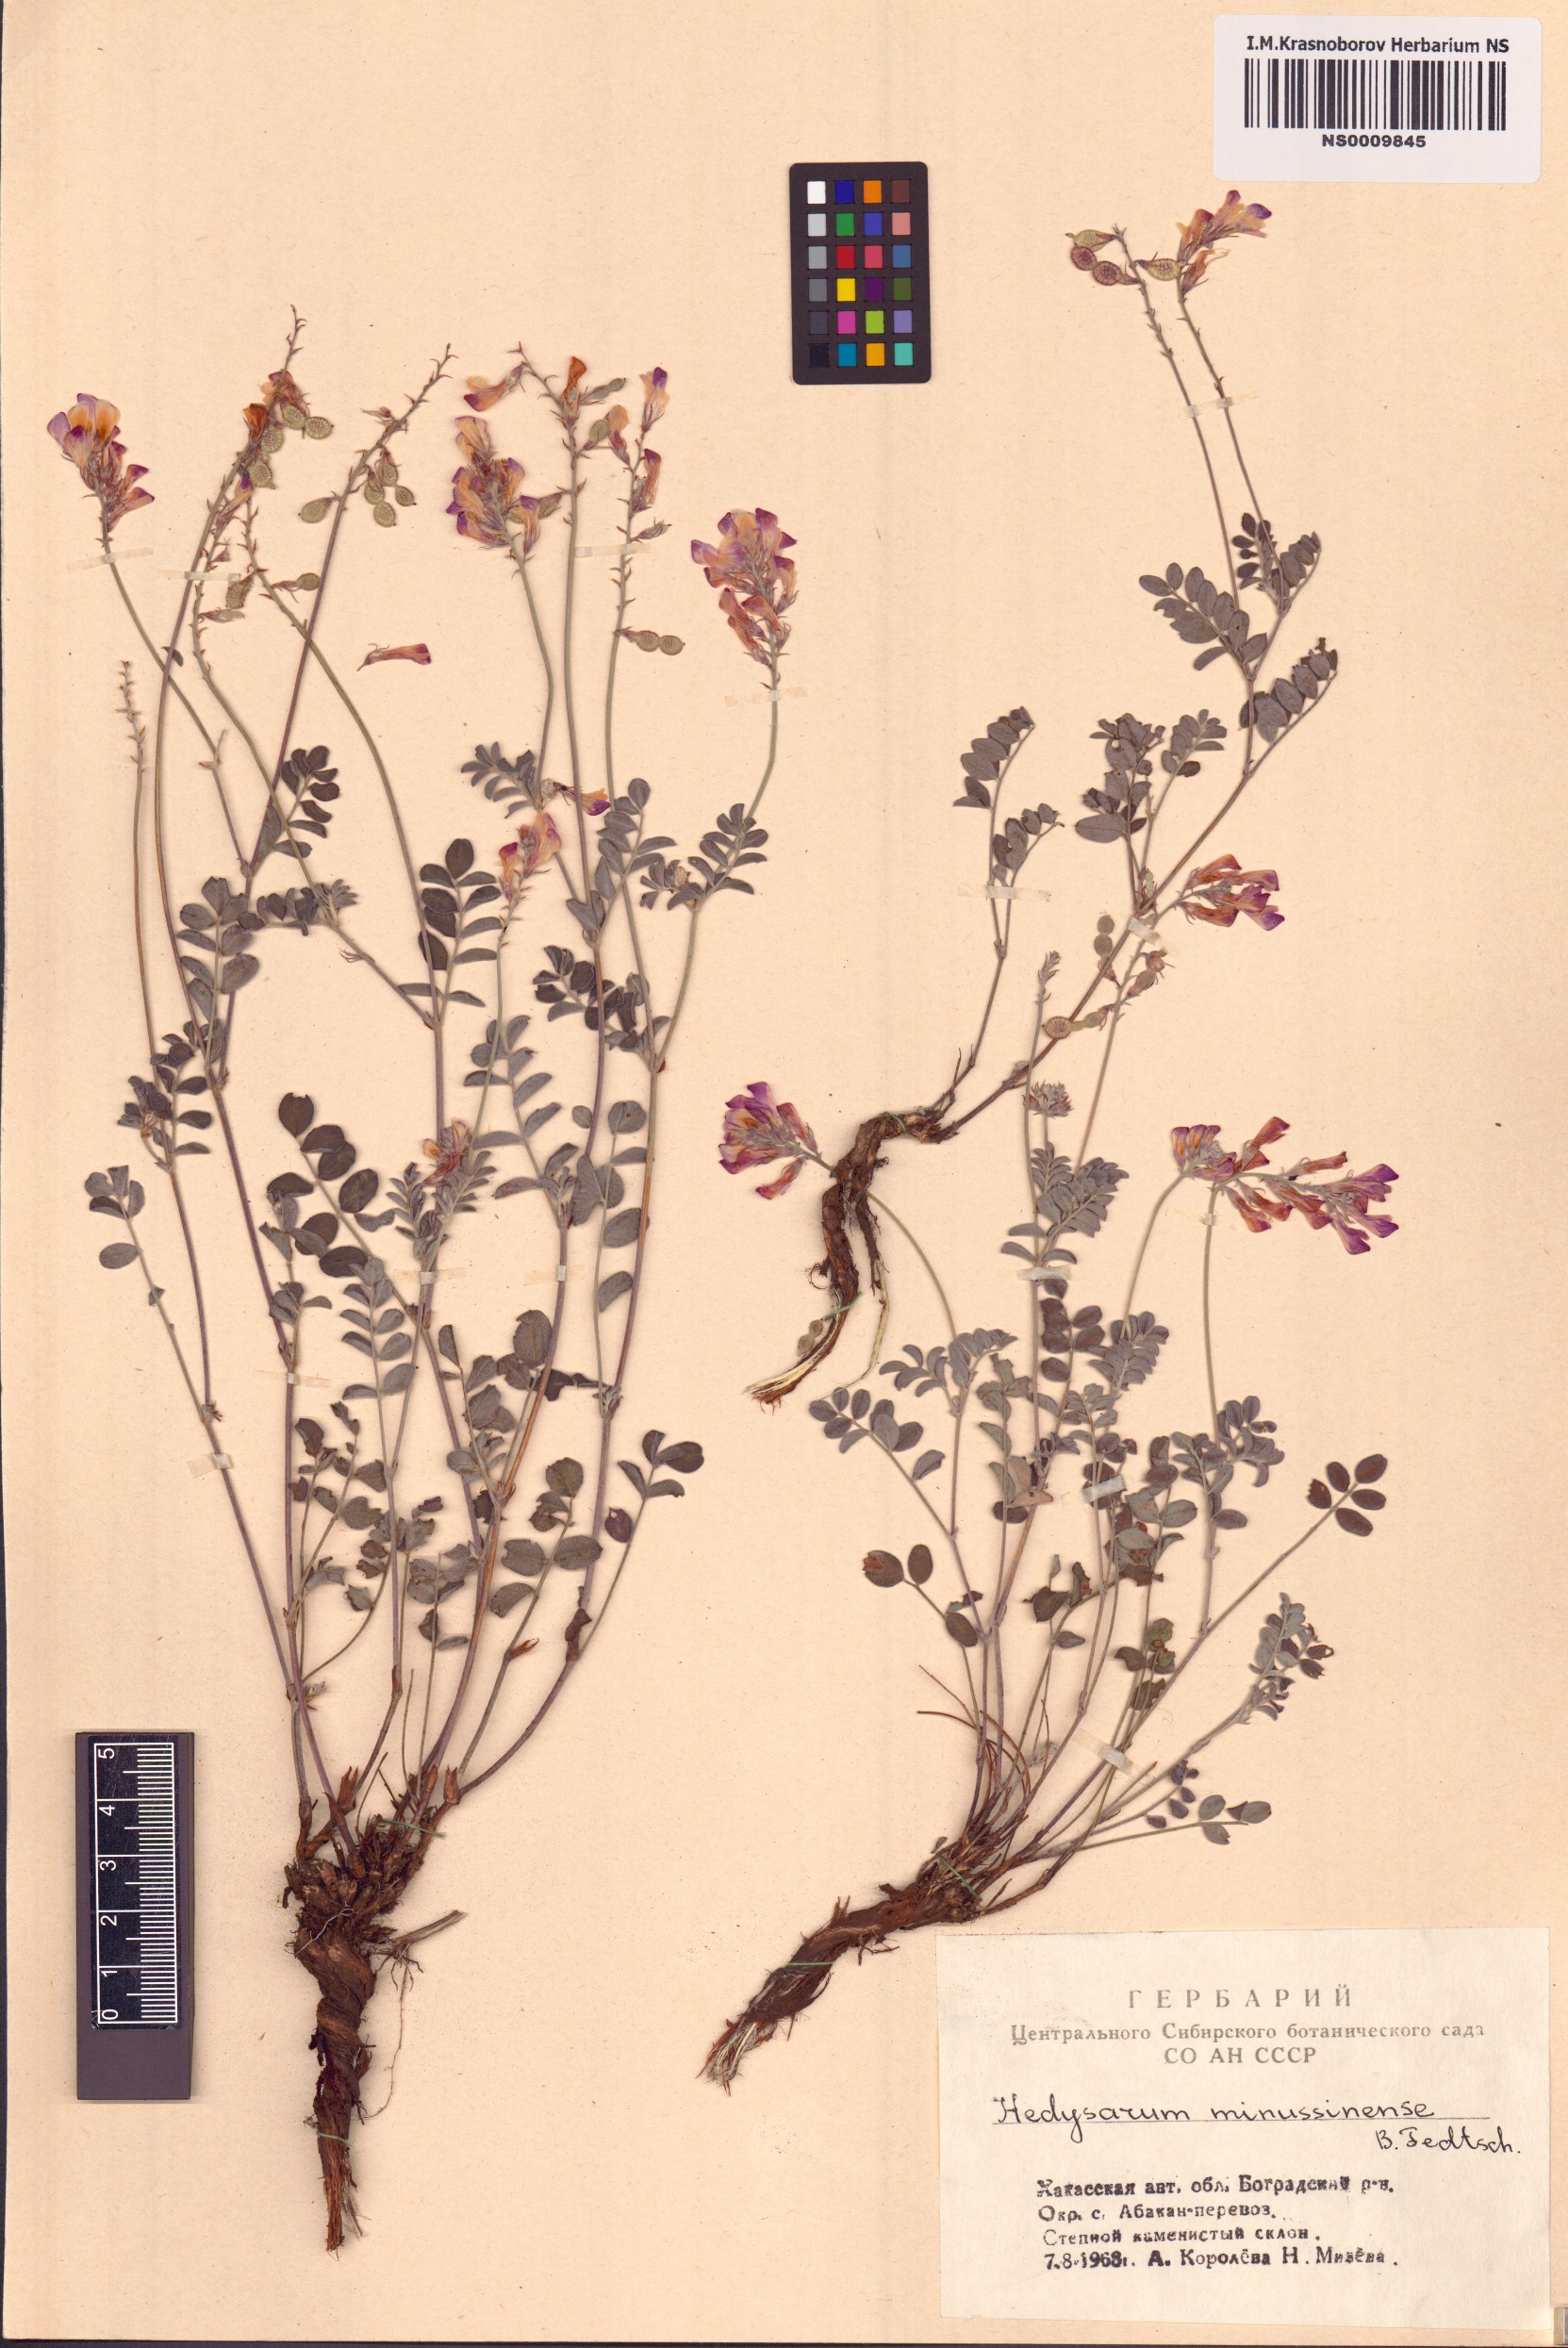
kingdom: Plantae
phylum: Tracheophyta
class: Magnoliopsida
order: Fabales
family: Fabaceae
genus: Hedysarum
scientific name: Hedysarum minussinense
